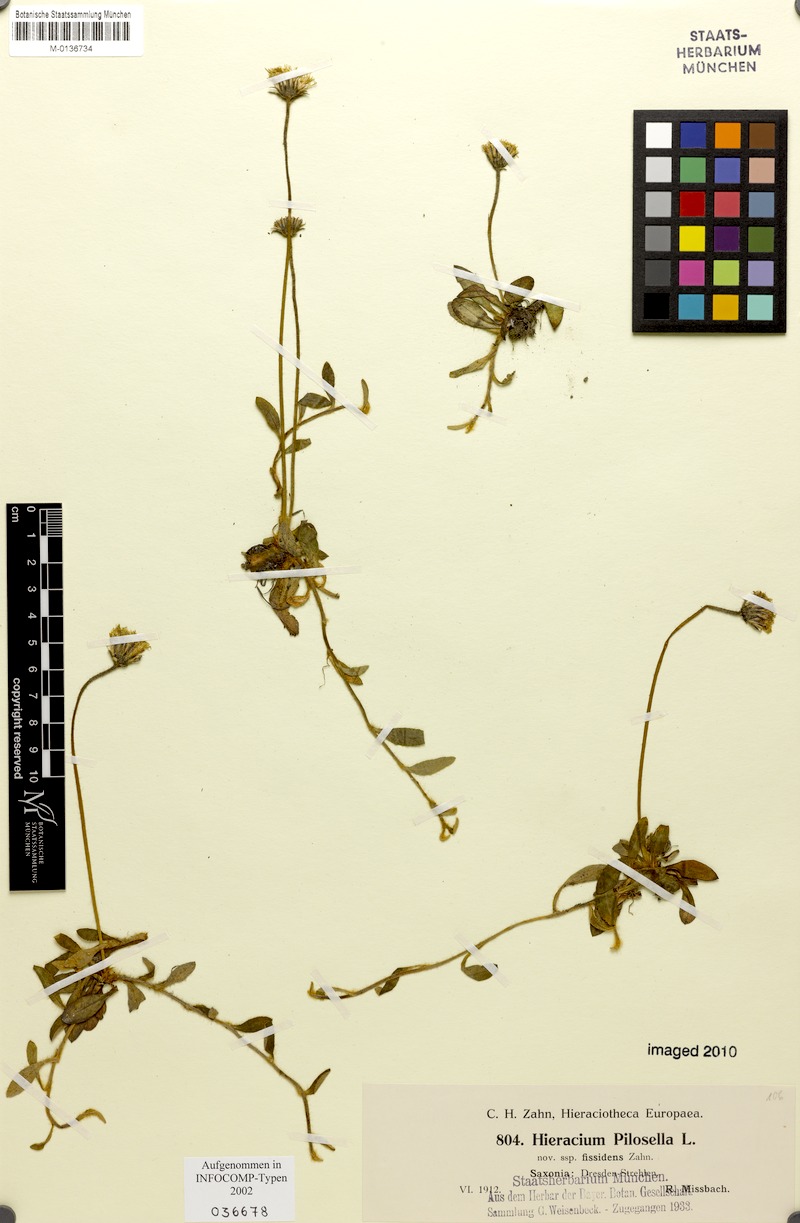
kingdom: Plantae
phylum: Tracheophyta
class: Magnoliopsida
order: Asterales
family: Asteraceae
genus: Pilosella
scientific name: Pilosella officinarum
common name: Mouse-ear hawkweed
